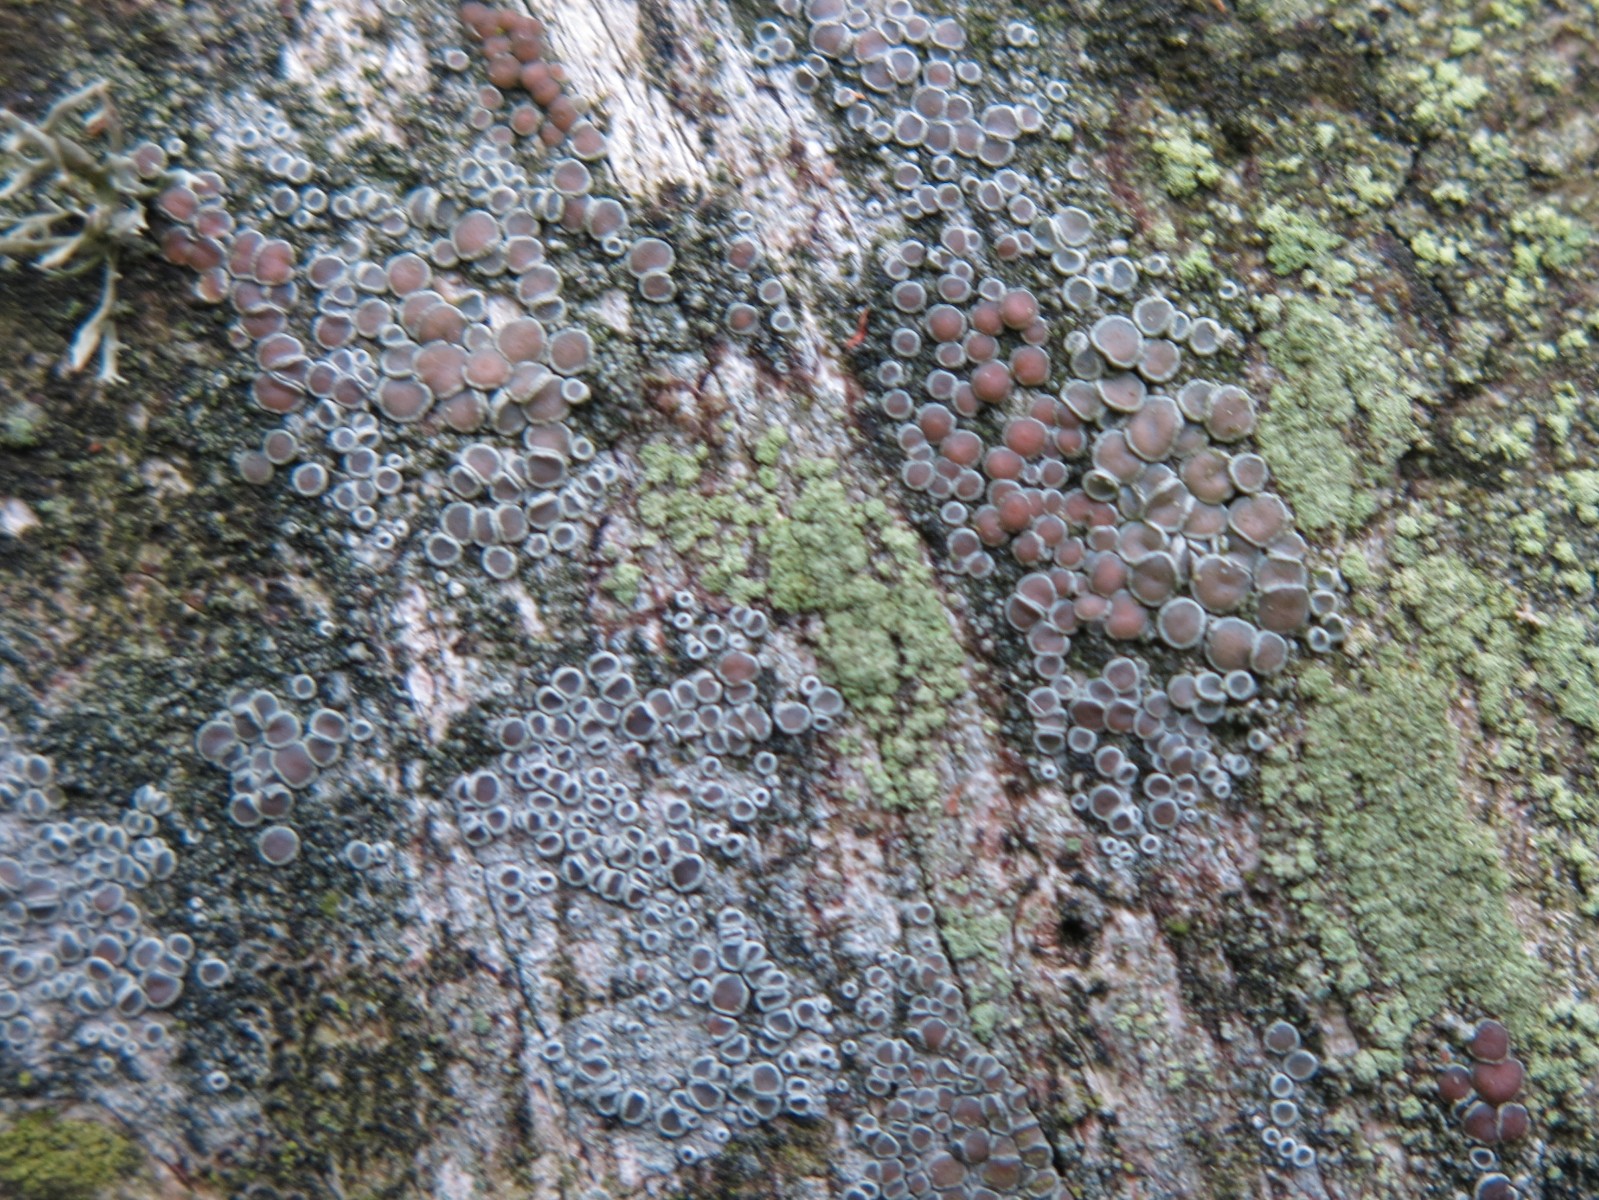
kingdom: Fungi
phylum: Ascomycota
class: Lecanoromycetes
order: Lecanorales
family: Lecanoraceae
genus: Lecanora
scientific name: Lecanora chlarotera
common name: brun kantskivelav
